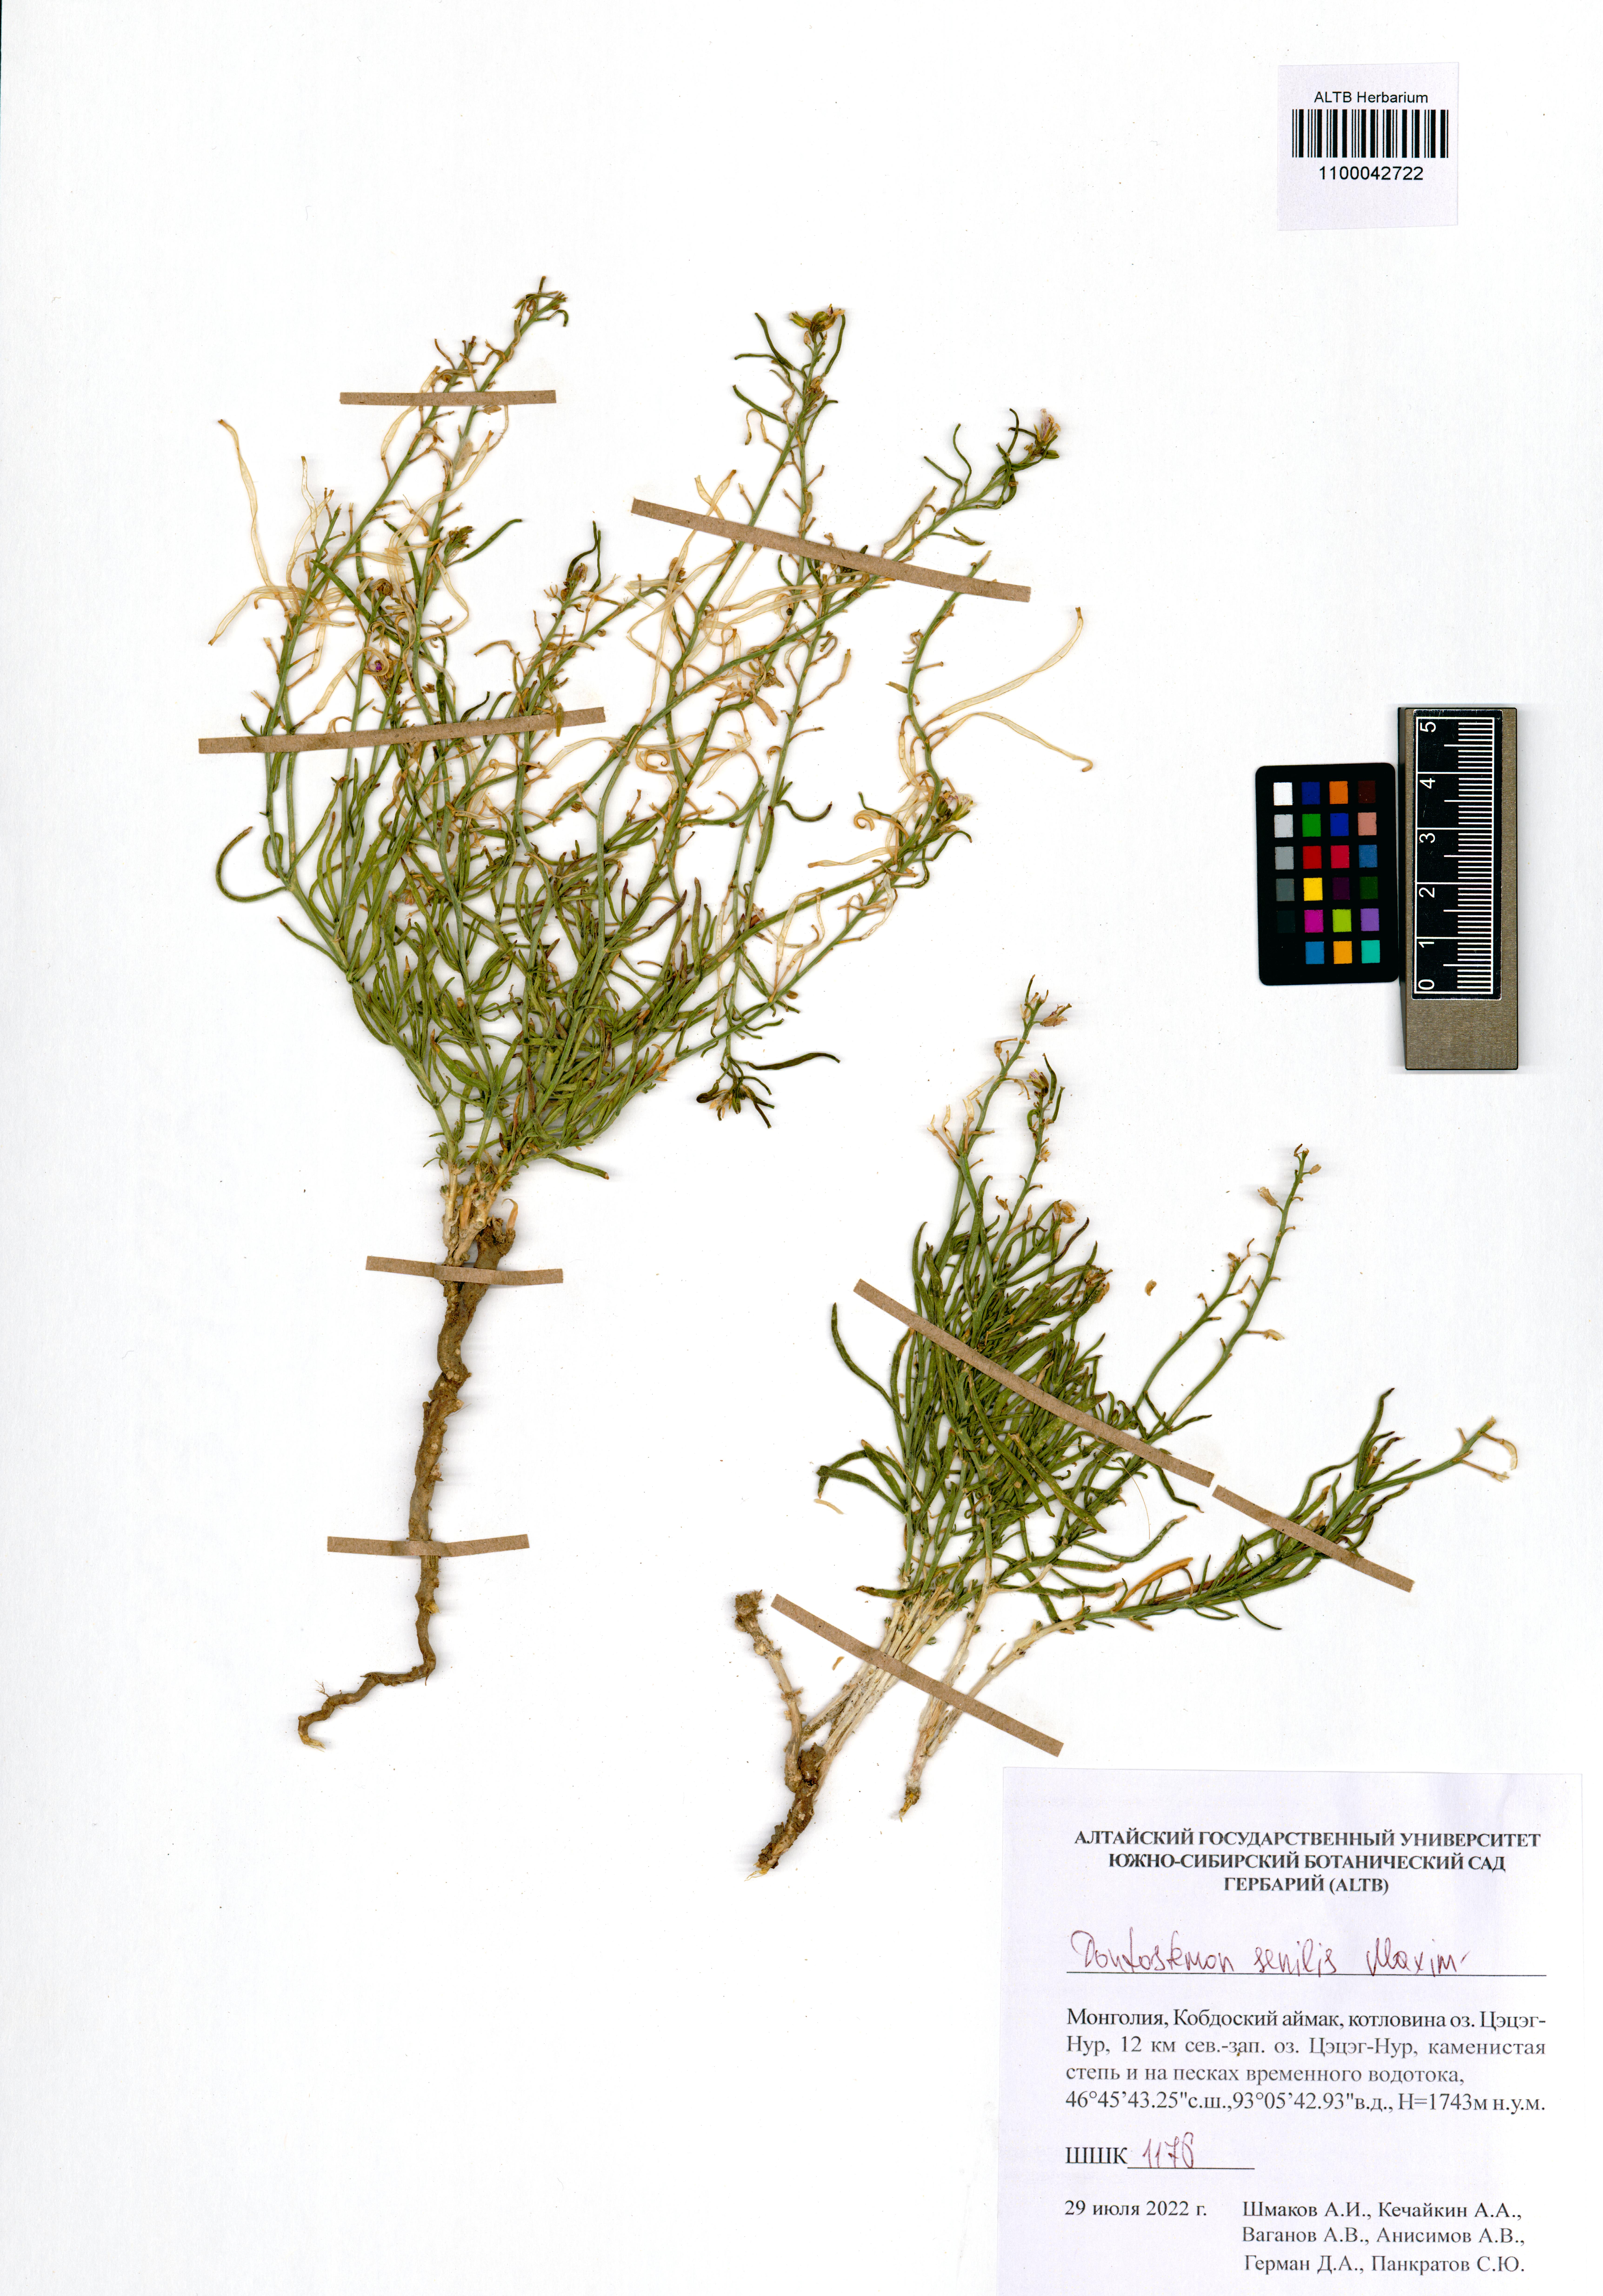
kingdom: Plantae
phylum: Tracheophyta
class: Magnoliopsida
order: Brassicales
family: Brassicaceae
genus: Dontostemon
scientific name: Dontostemon senilis
